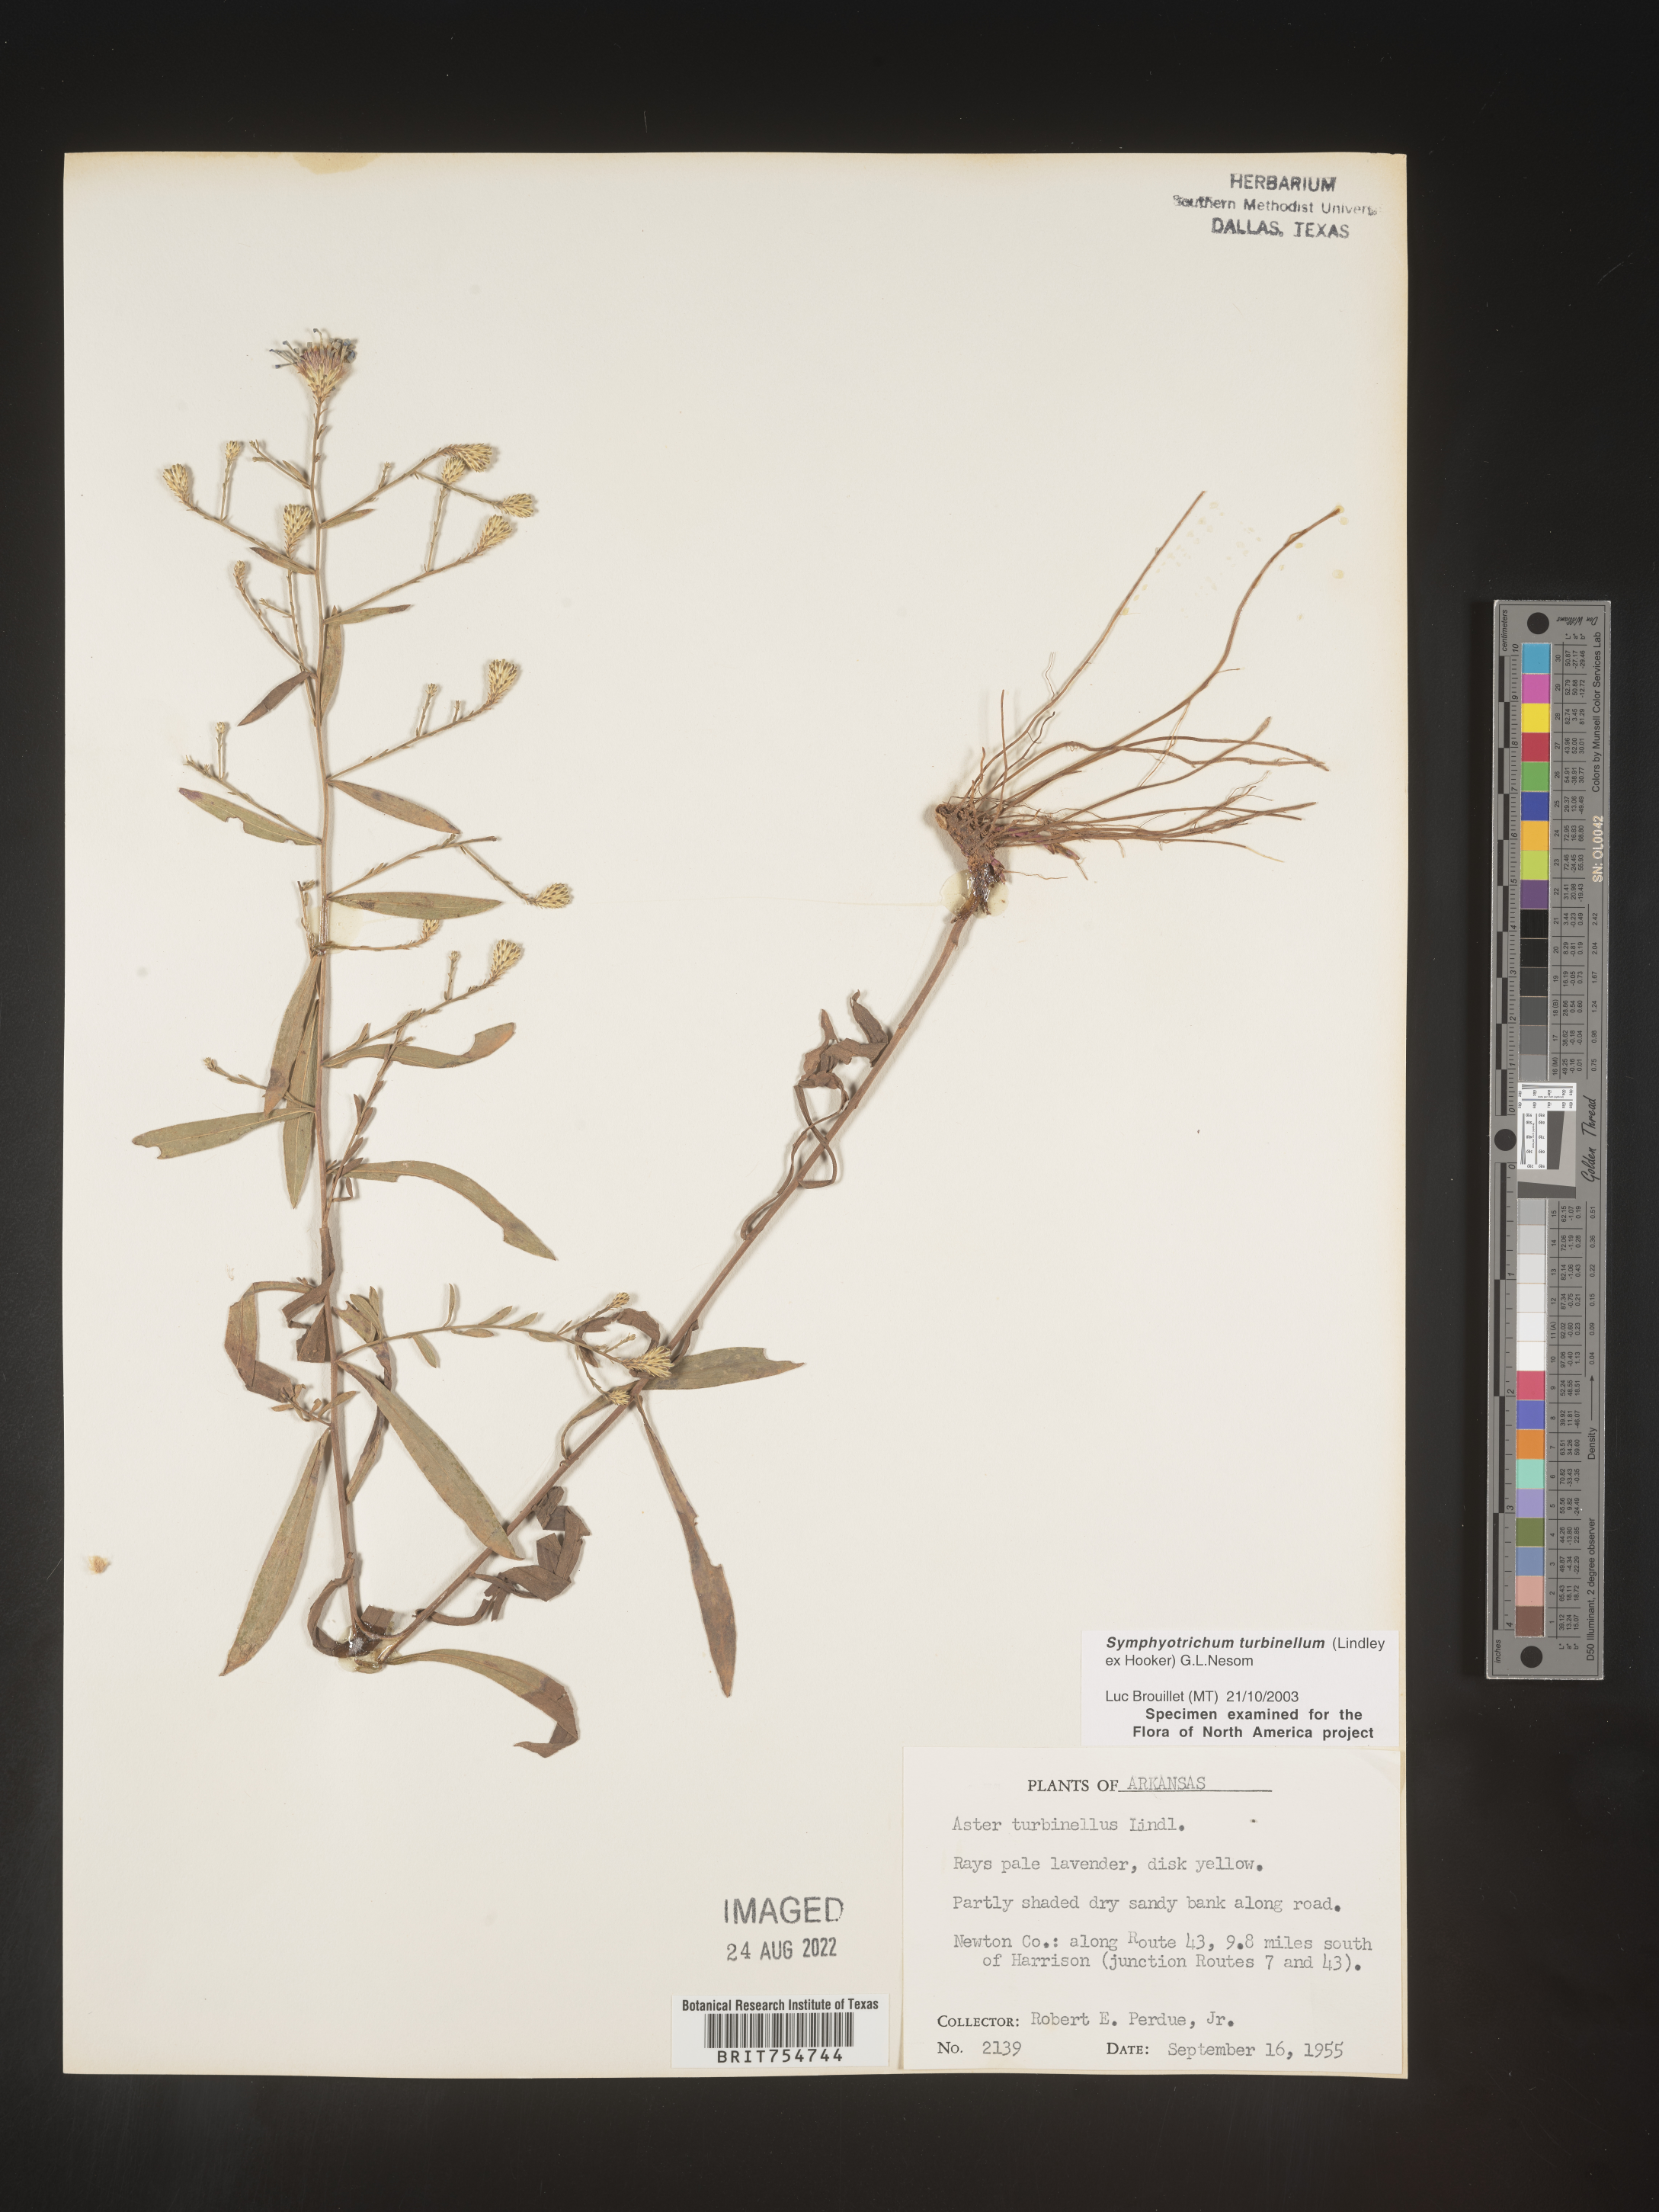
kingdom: Plantae
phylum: Tracheophyta
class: Magnoliopsida
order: Asterales
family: Asteraceae
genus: Symphyotrichum
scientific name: Symphyotrichum turbinellum
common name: Prairie aster
